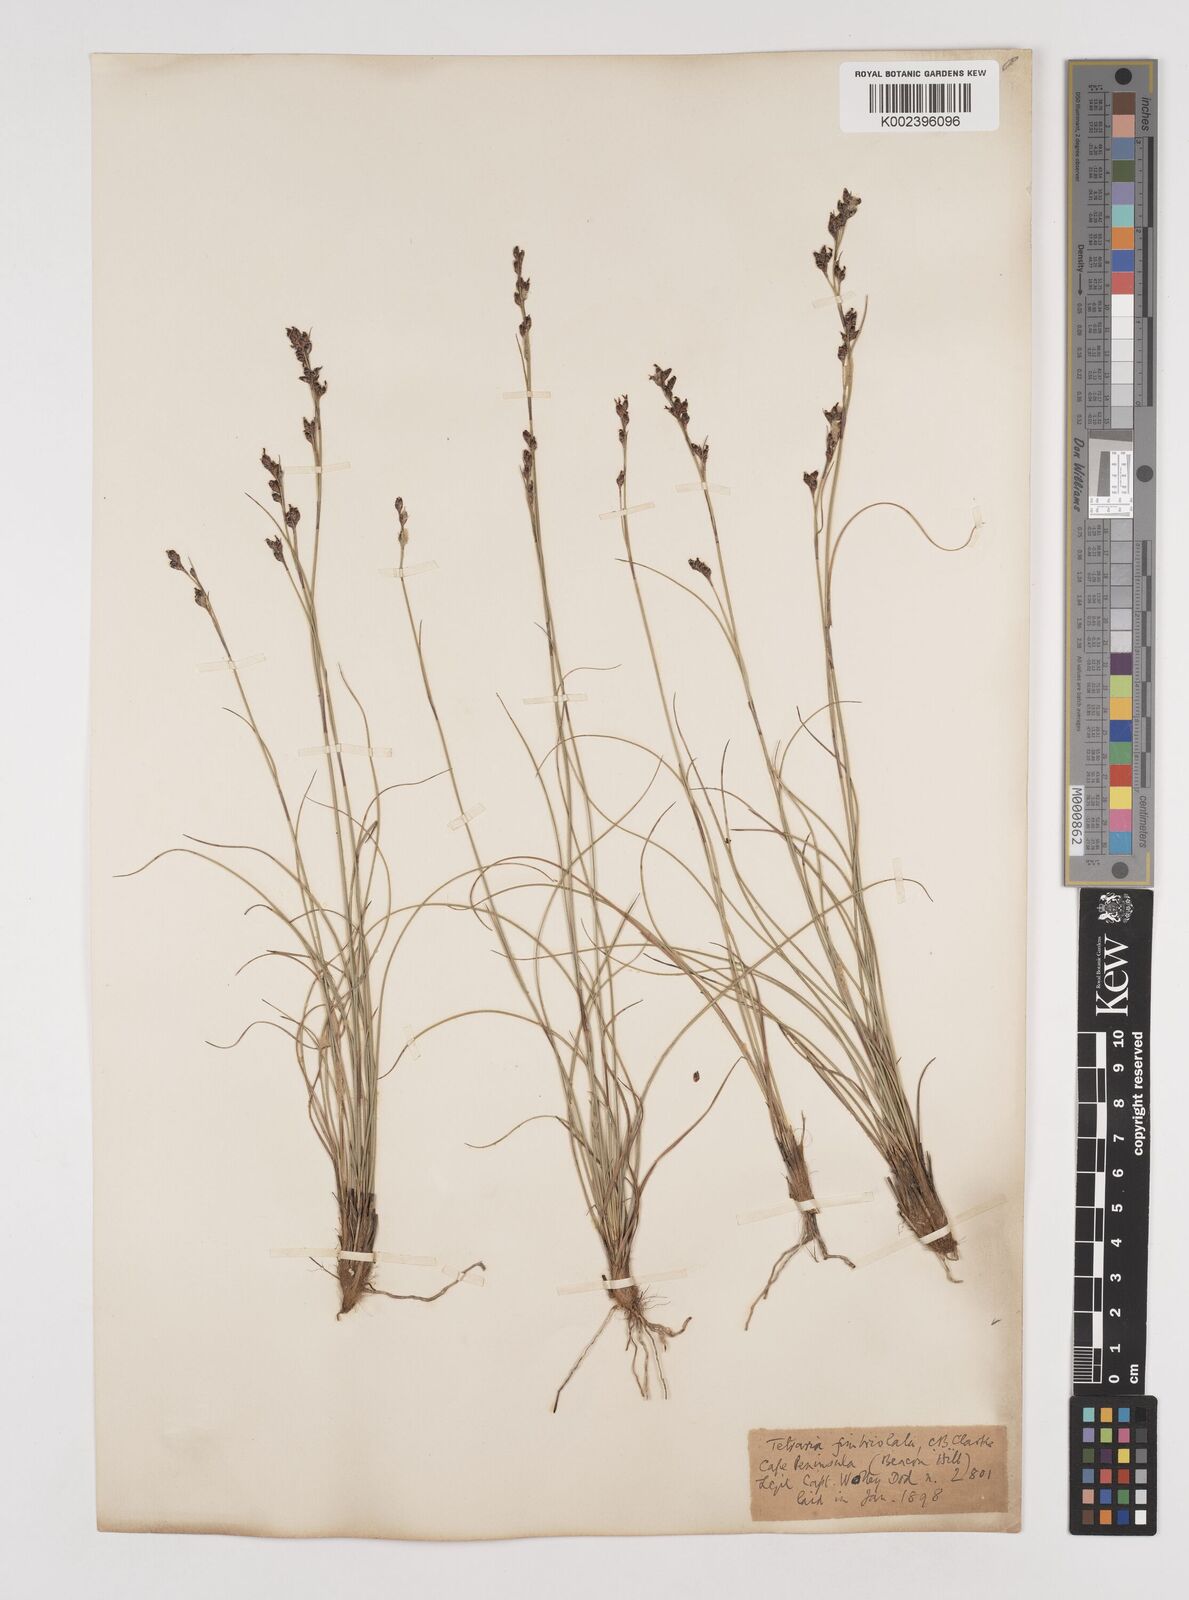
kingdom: Plantae
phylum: Tracheophyta
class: Liliopsida
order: Poales
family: Cyperaceae
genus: Tetraria
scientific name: Tetraria fimbriolata
